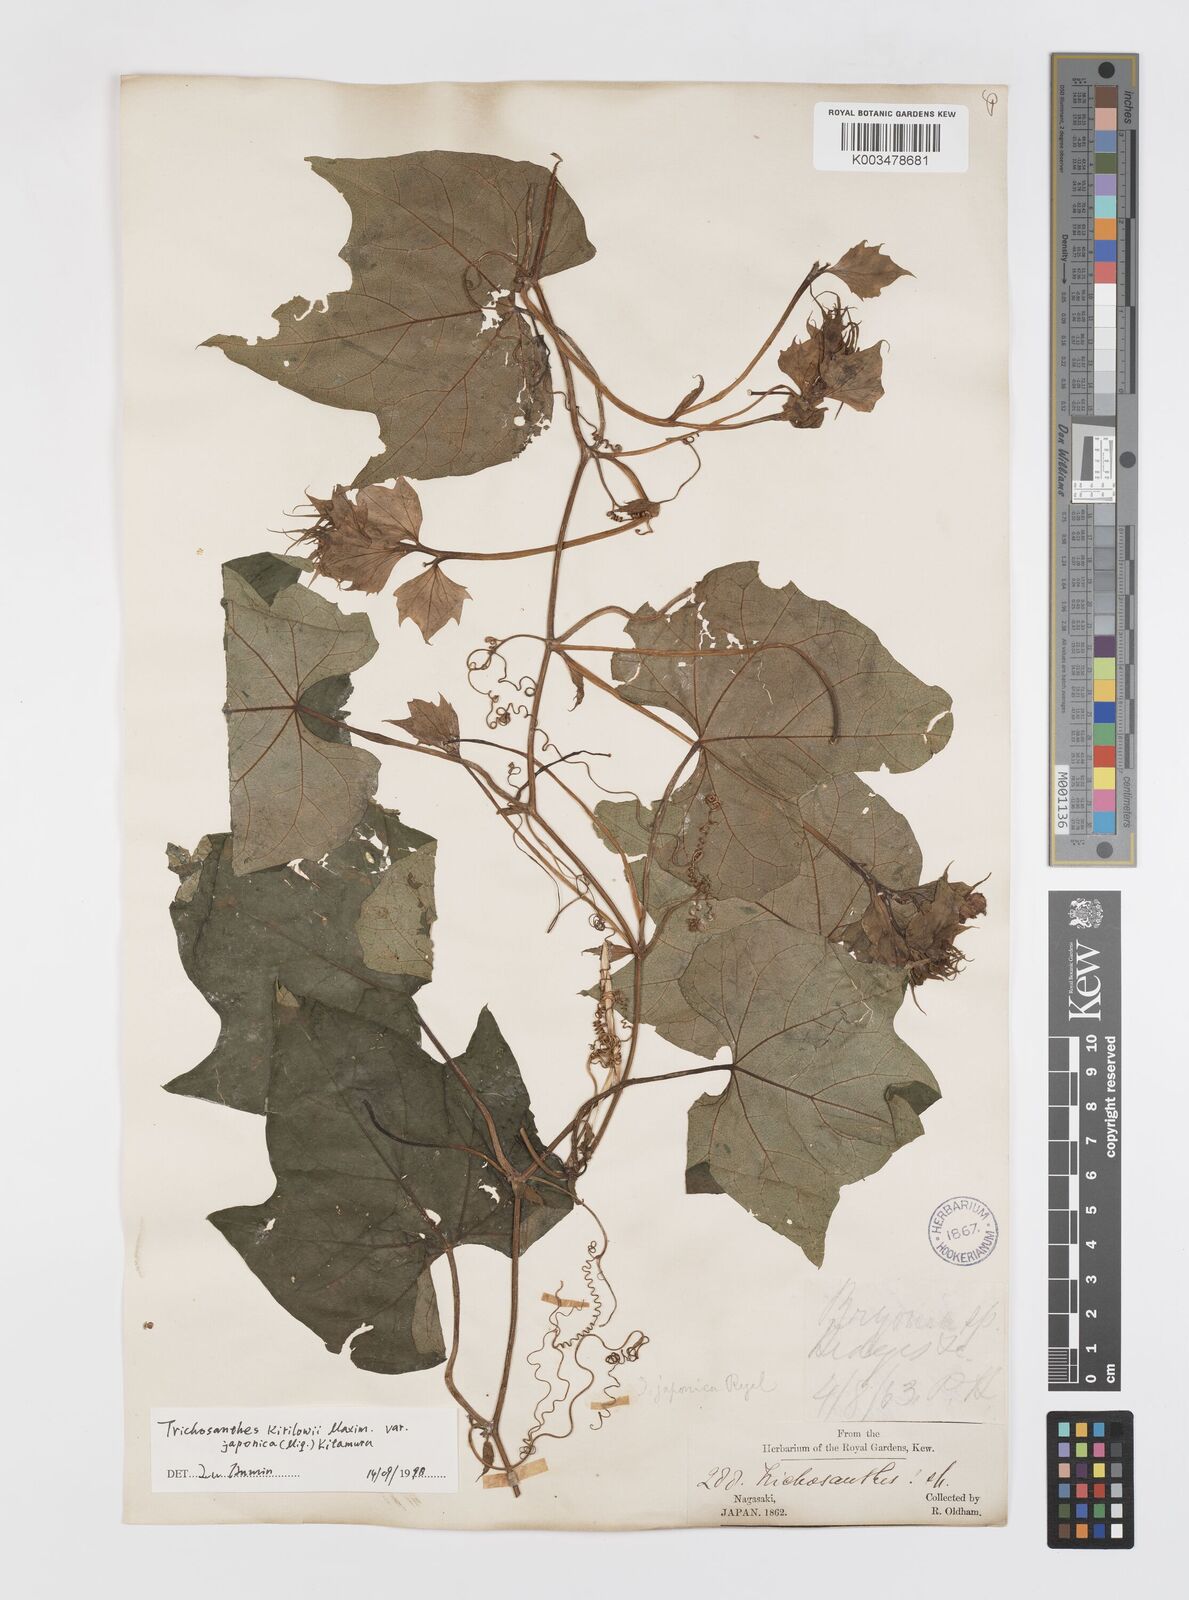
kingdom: Plantae
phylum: Tracheophyta
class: Magnoliopsida
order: Cucurbitales
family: Cucurbitaceae
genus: Trichosanthes
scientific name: Trichosanthes kirilowii
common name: Chinese-cucumber
